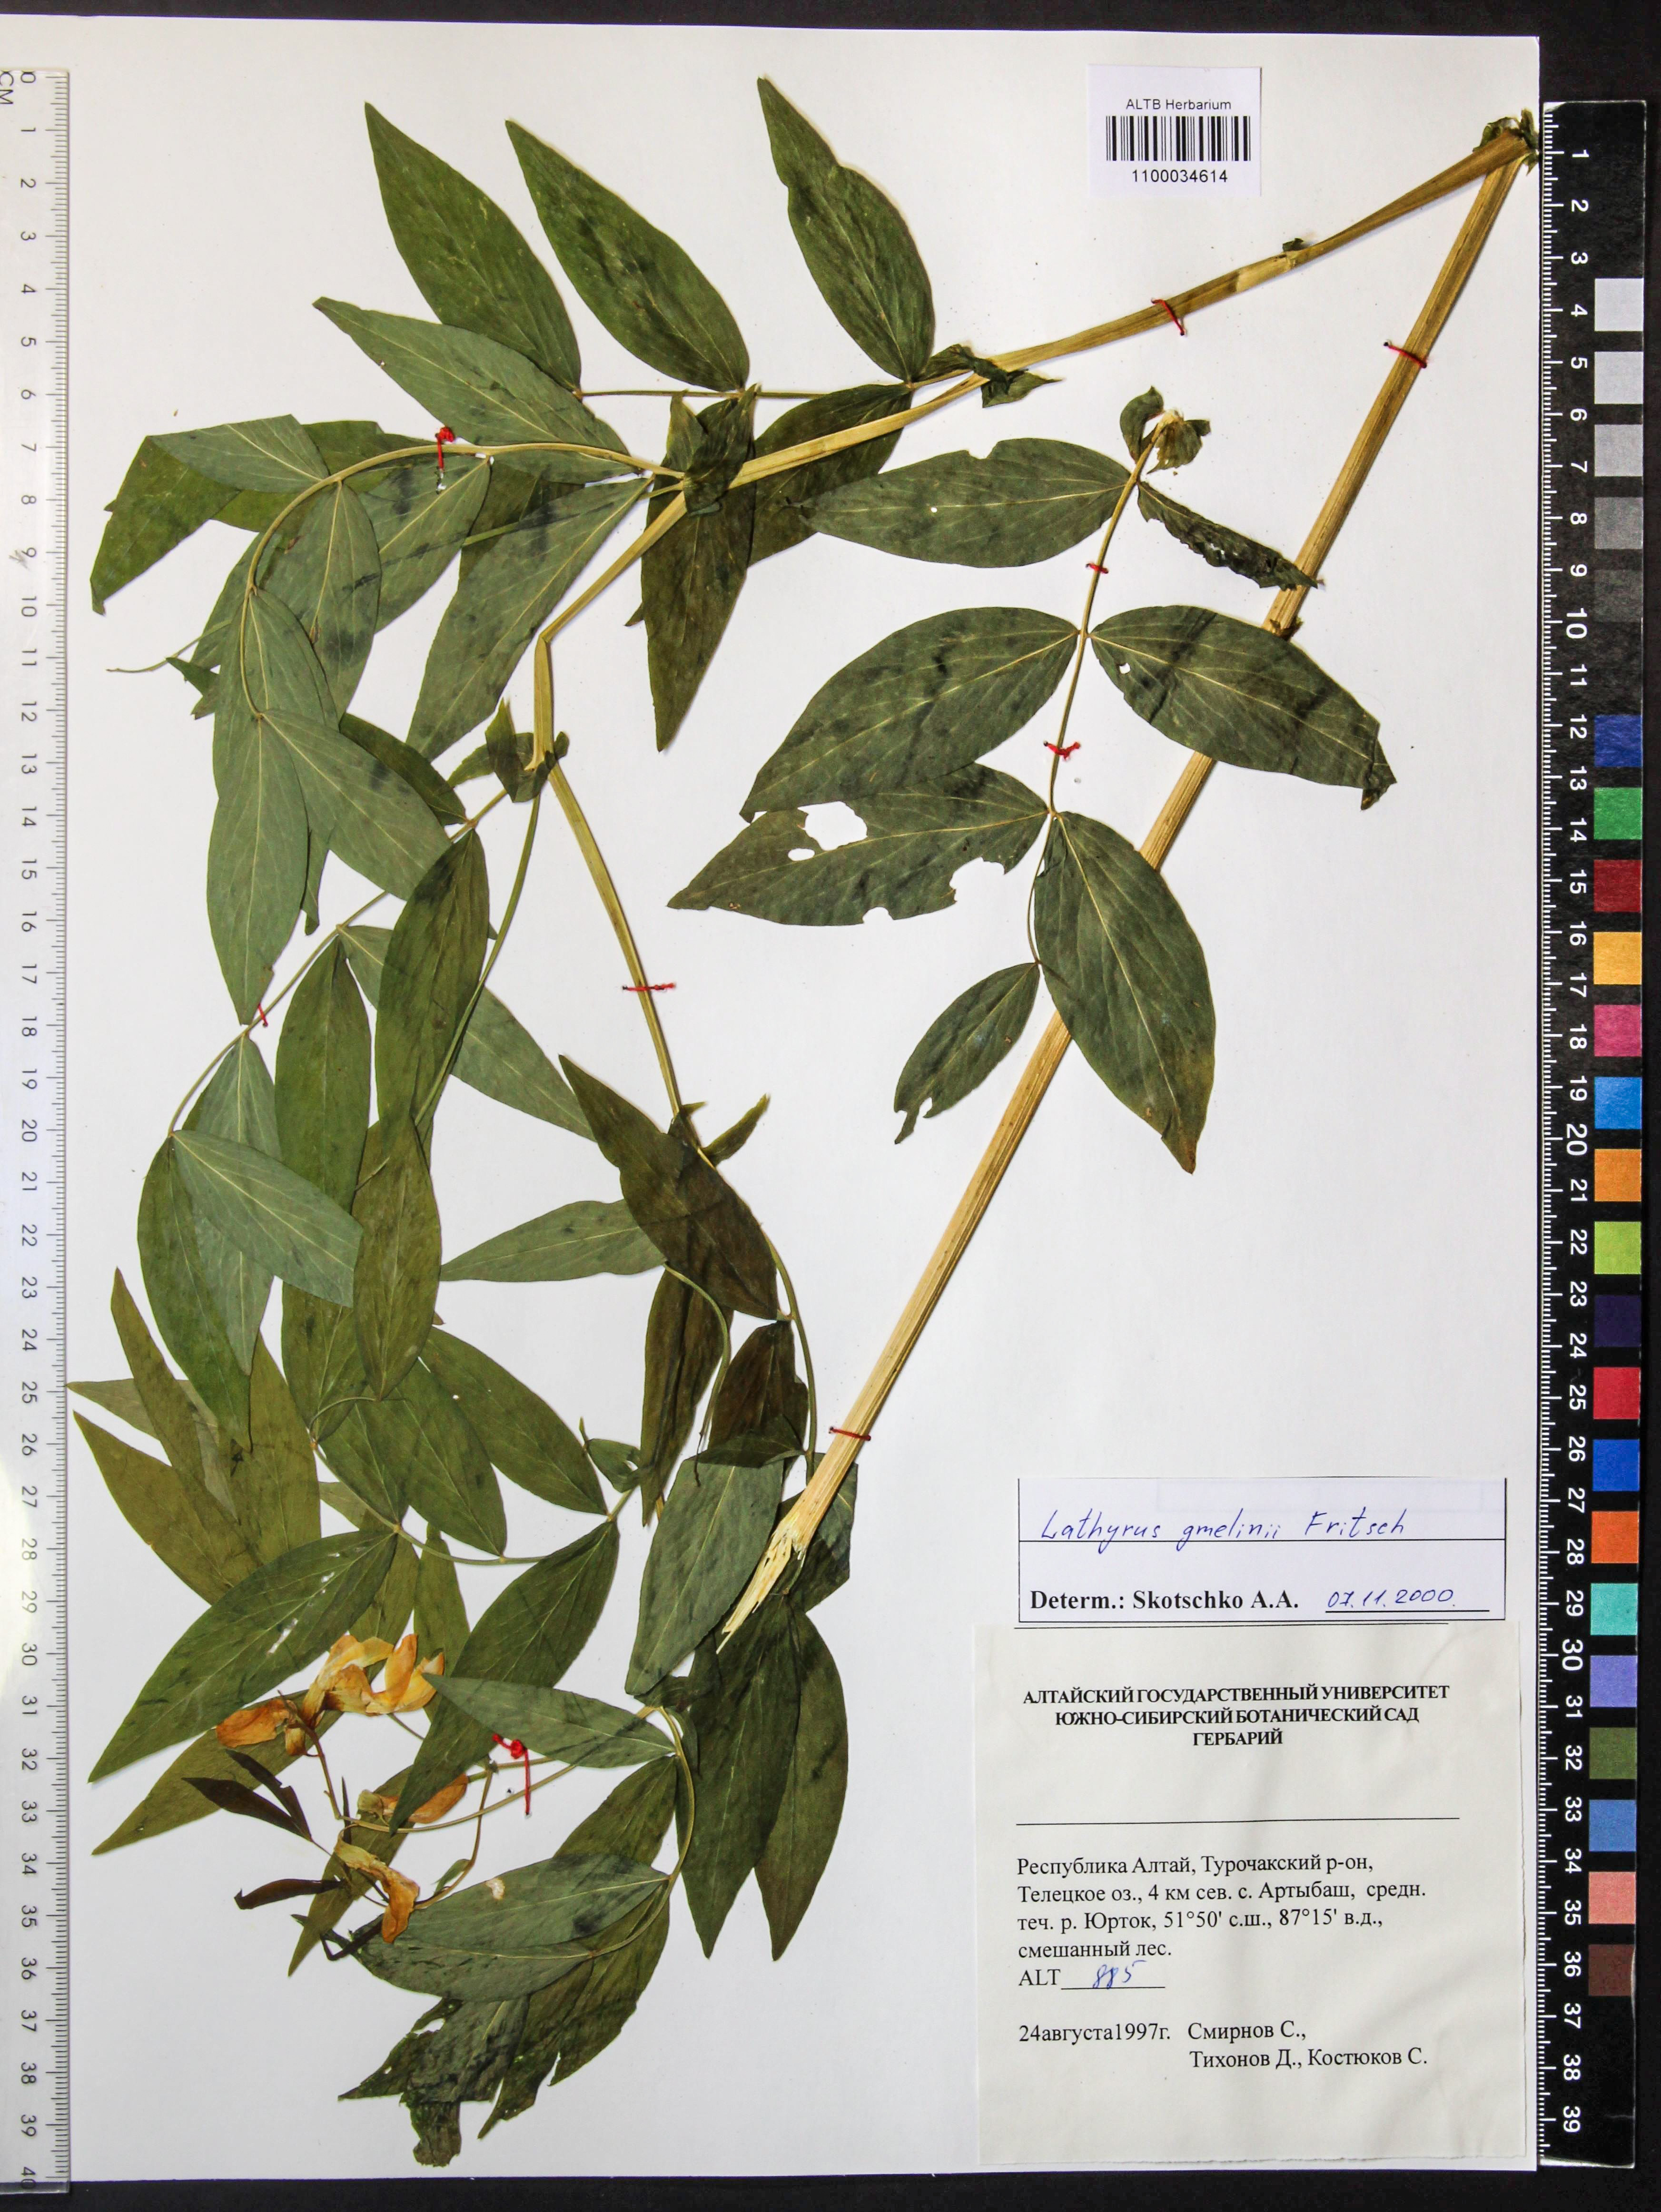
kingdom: Plantae
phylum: Tracheophyta
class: Magnoliopsida
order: Fabales
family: Fabaceae
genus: Lathyrus
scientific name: Lathyrus gmelinii
